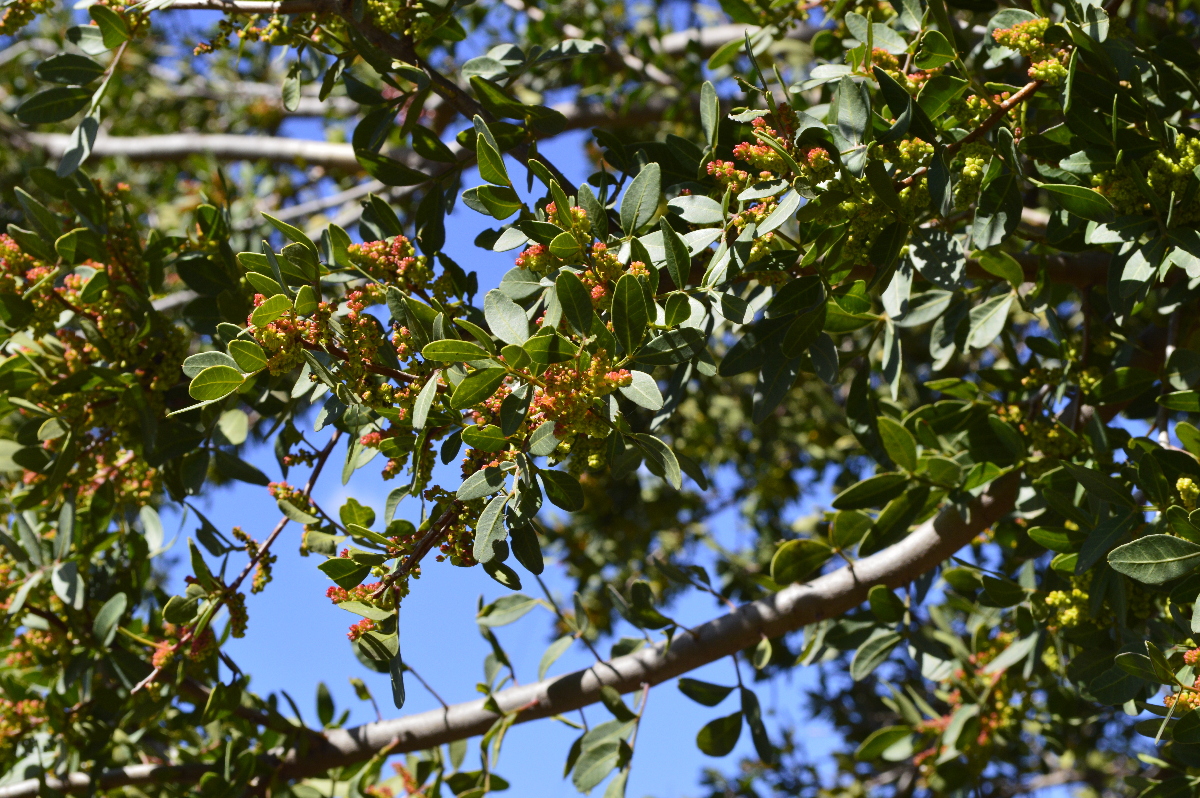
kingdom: Plantae
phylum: Tracheophyta
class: Magnoliopsida
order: Sapindales
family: Anacardiaceae
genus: Pistacia
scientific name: Pistacia lentiscus
